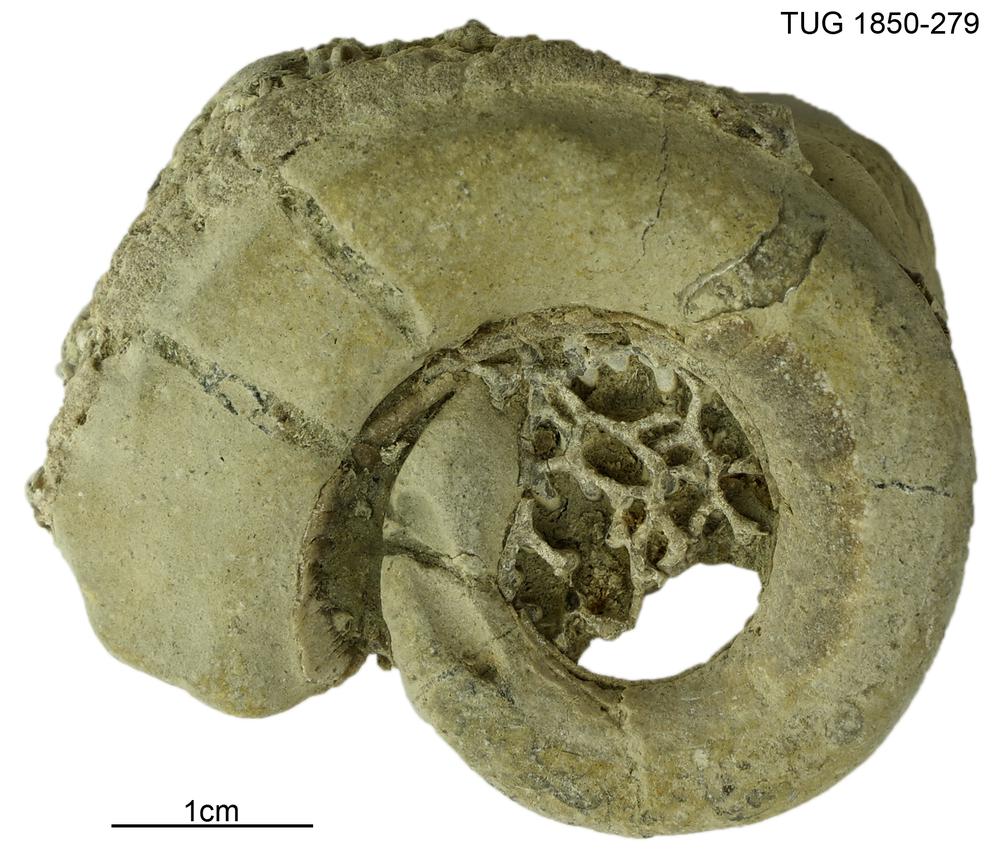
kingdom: Animalia
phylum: Mollusca
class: Gastropoda
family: Euomphalidae
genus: Euomphalopterus
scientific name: Euomphalopterus
